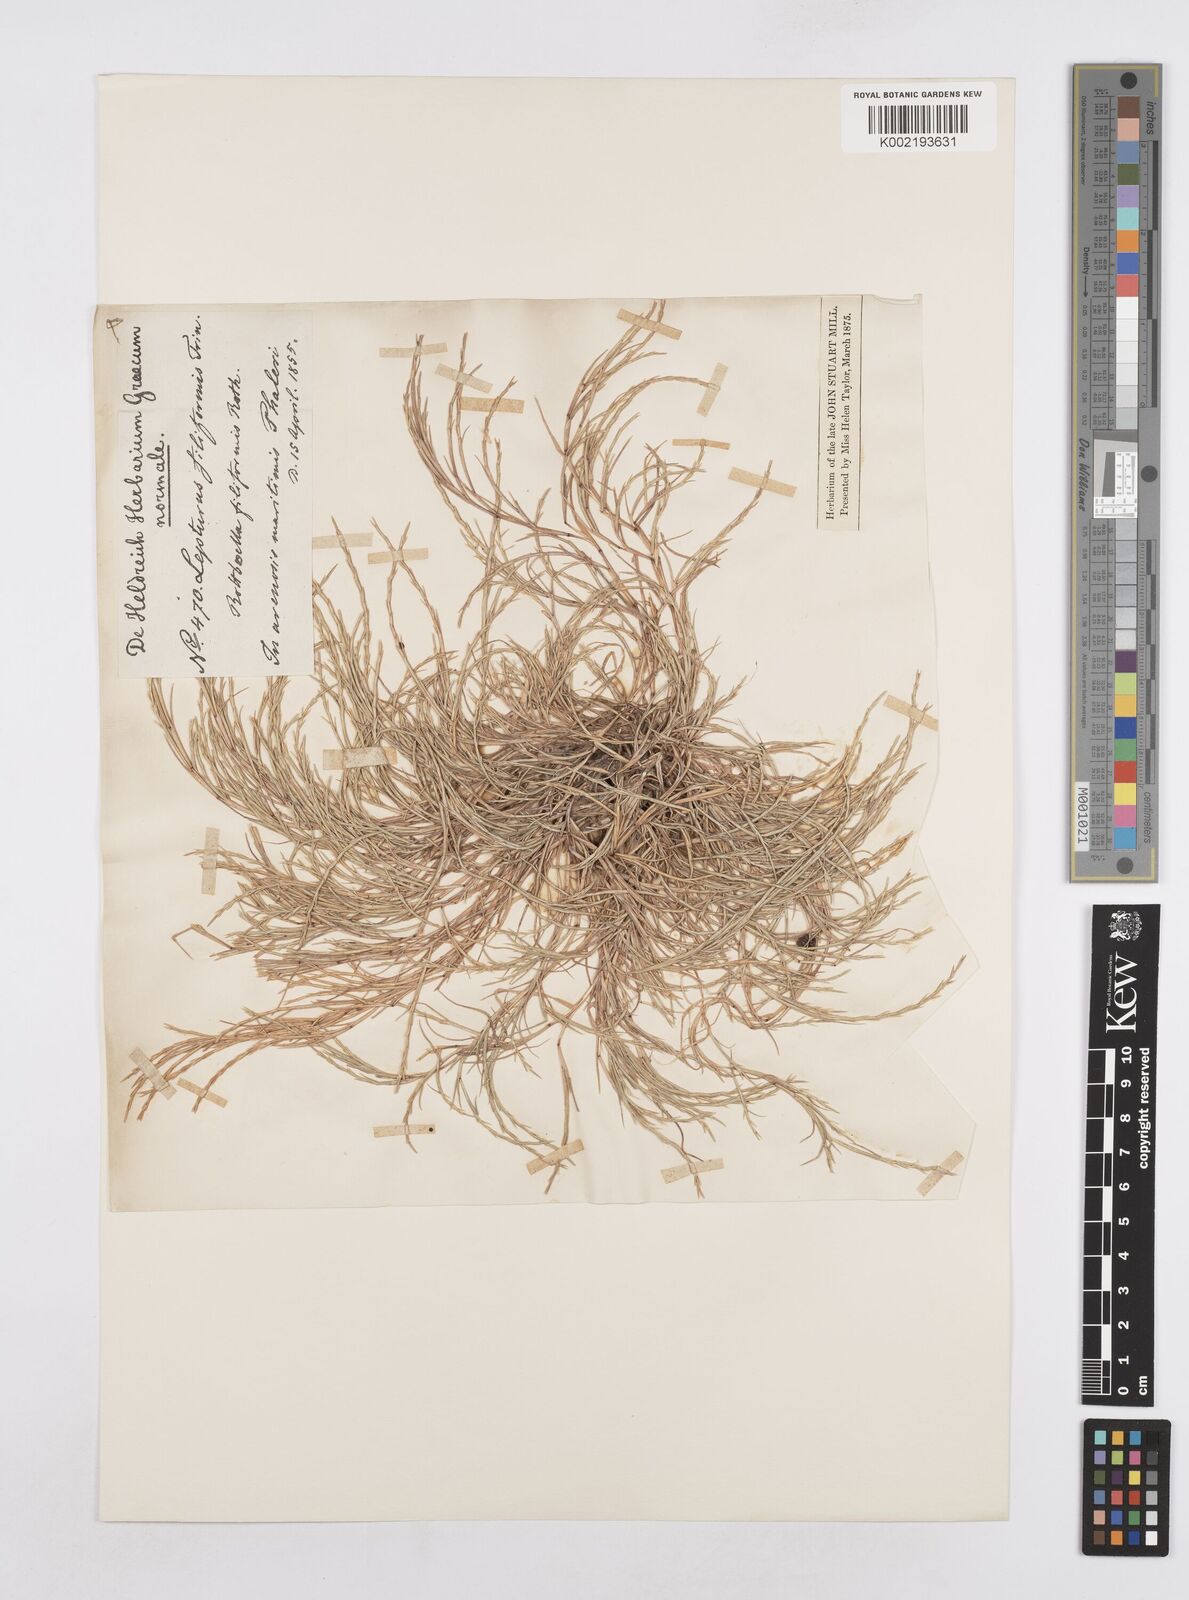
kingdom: Plantae
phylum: Tracheophyta
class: Liliopsida
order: Poales
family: Poaceae
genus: Parapholis
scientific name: Parapholis filiformis
